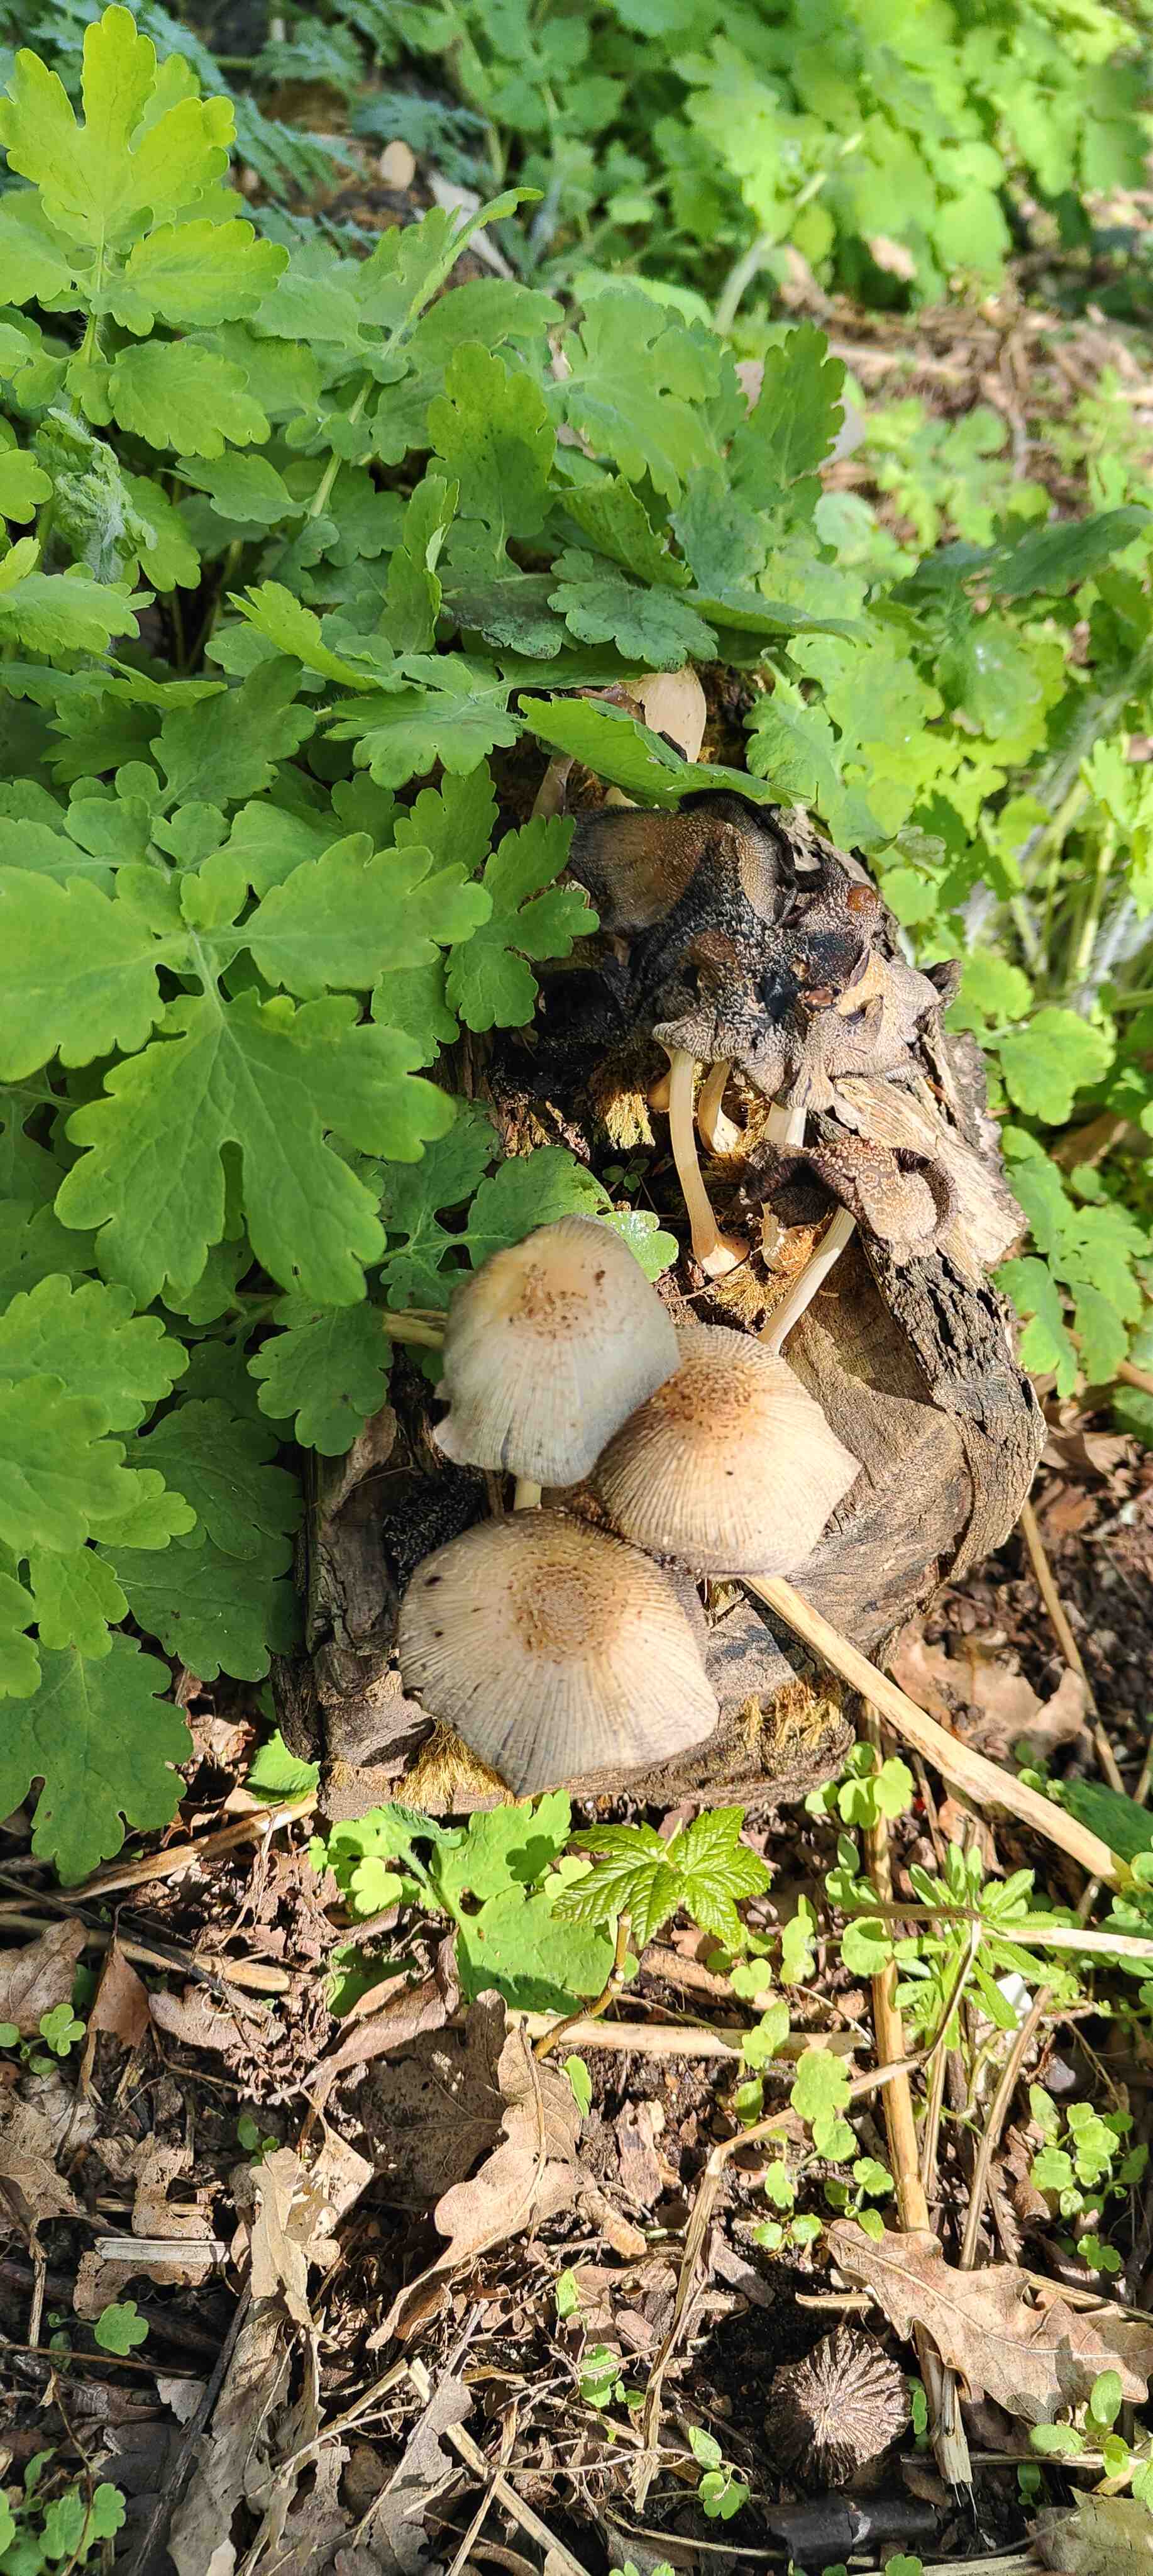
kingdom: Fungi
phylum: Basidiomycota
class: Agaricomycetes
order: Agaricales
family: Psathyrellaceae
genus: Coprinellus
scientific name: Coprinellus
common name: blækhat
